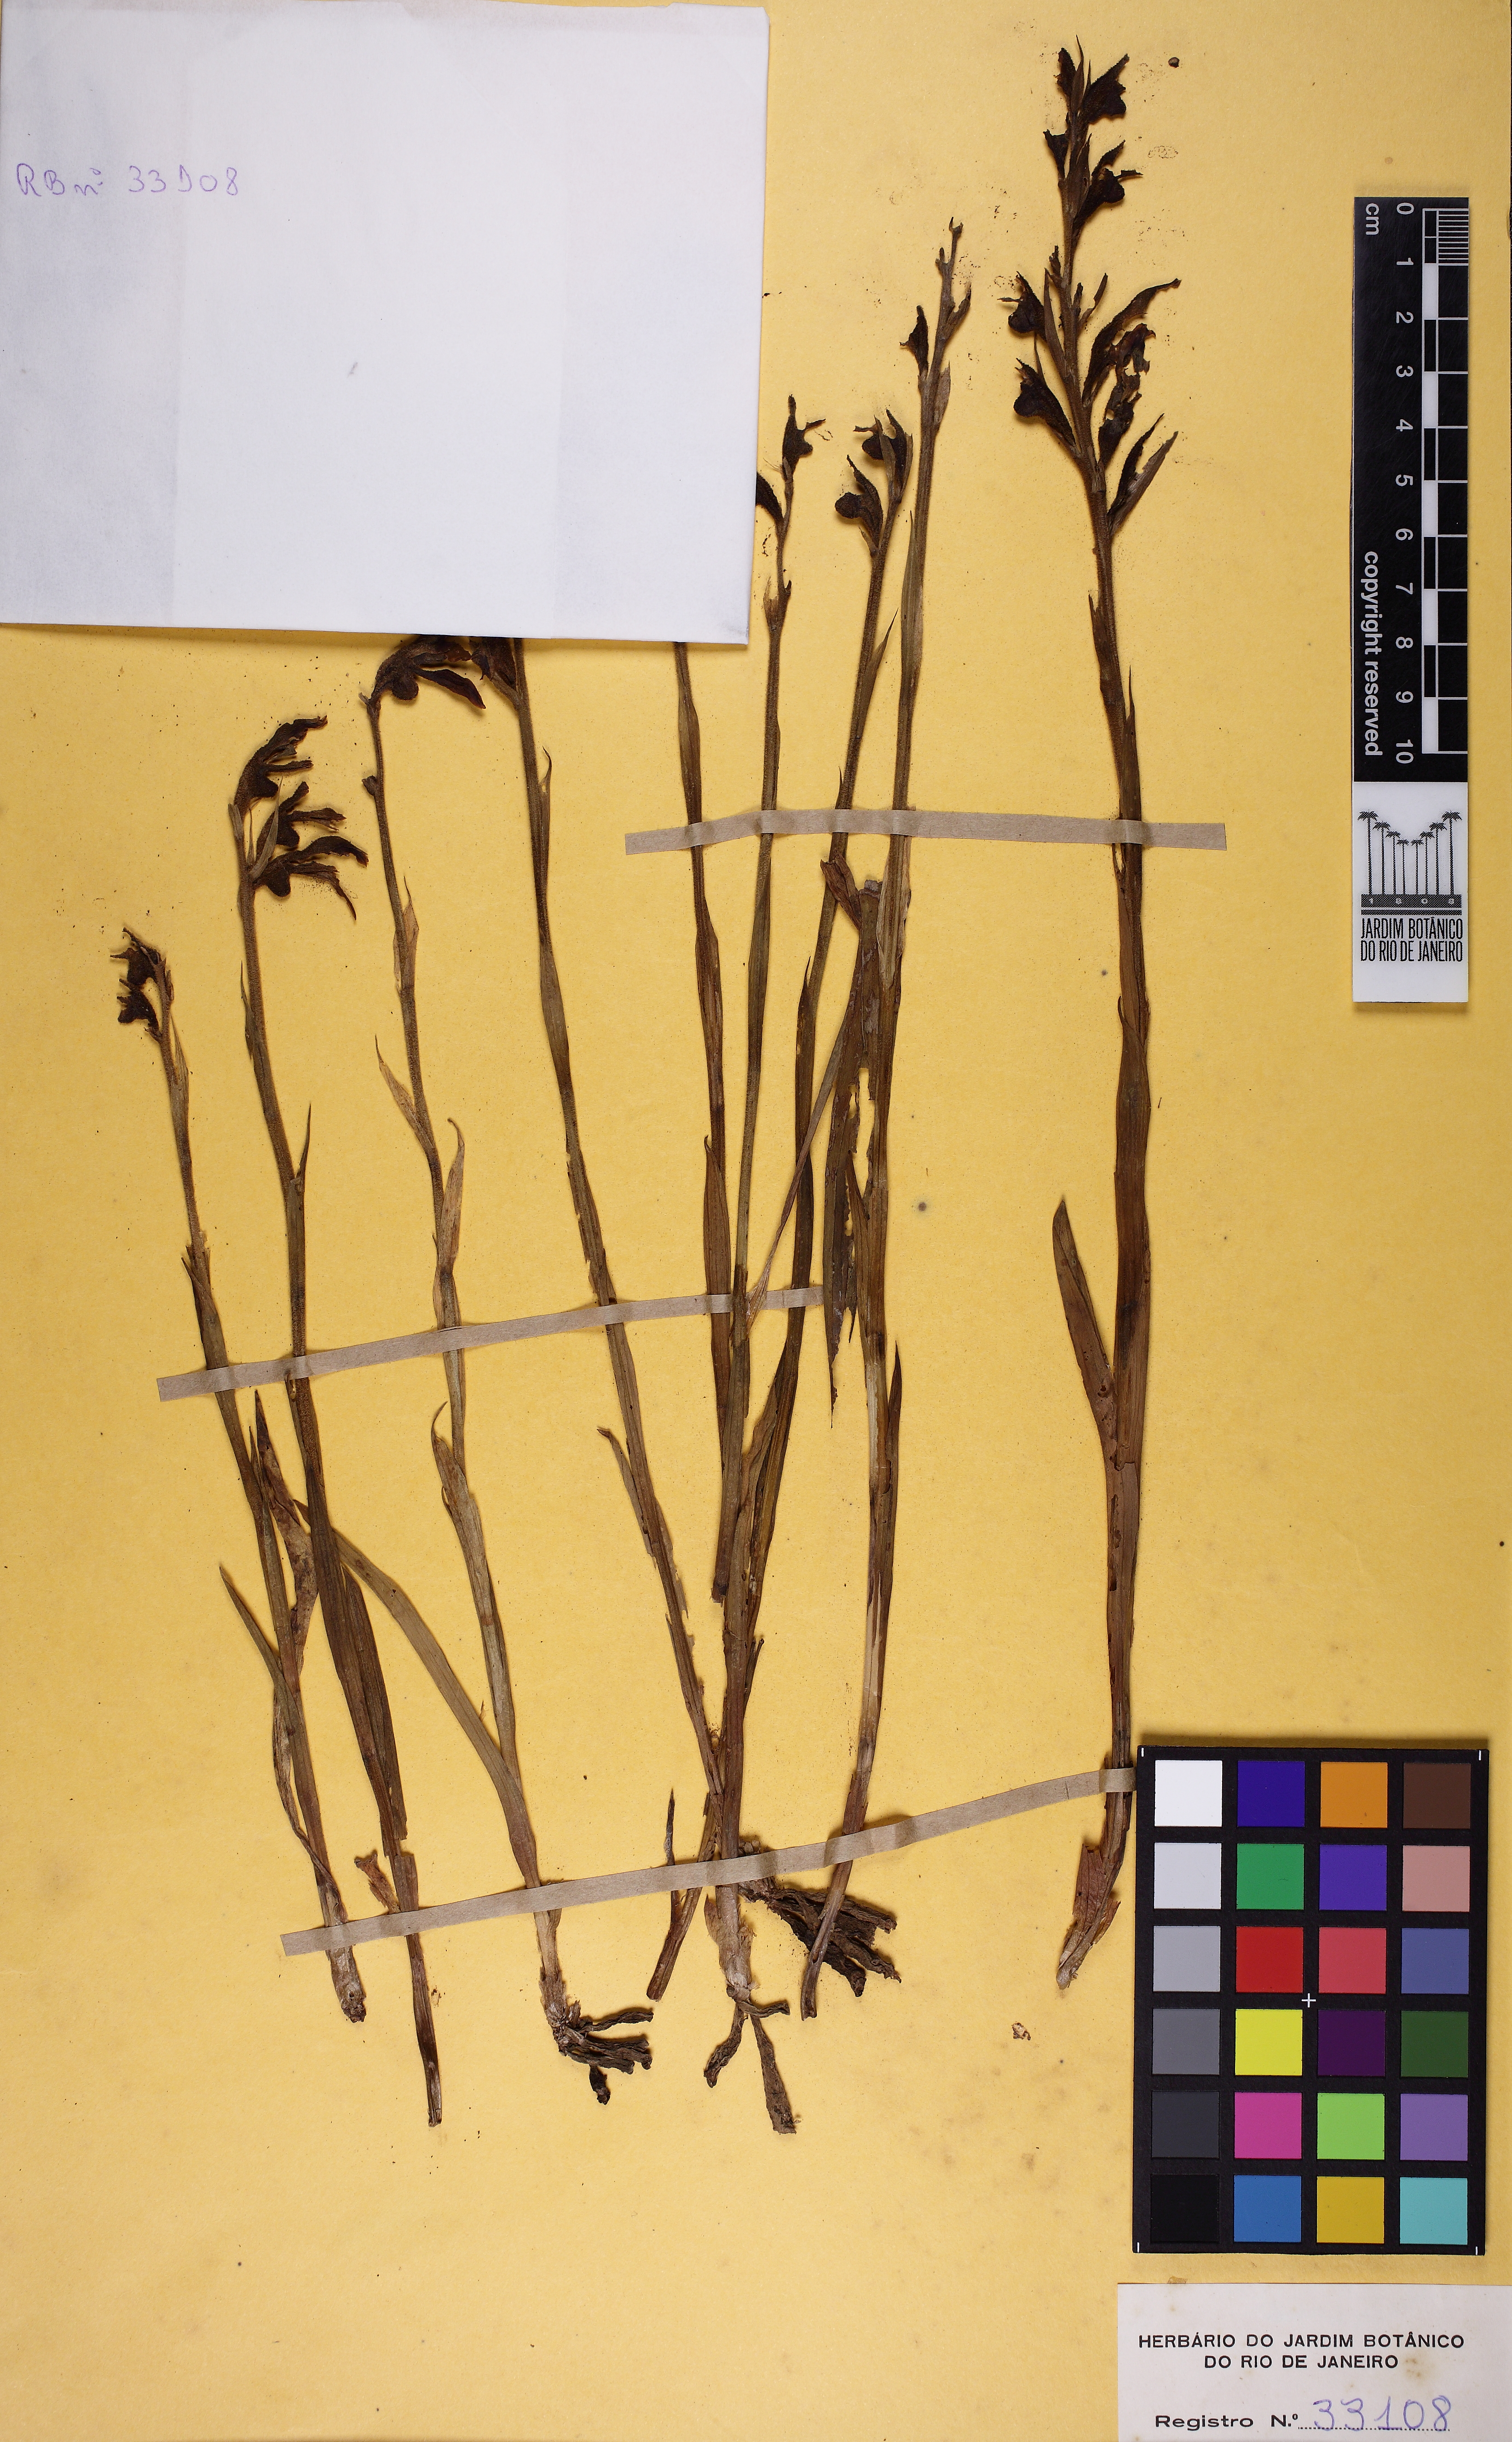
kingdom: Plantae
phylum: Tracheophyta
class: Liliopsida
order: Asparagales
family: Orchidaceae
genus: Pelexia
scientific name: Pelexia itatiayae
